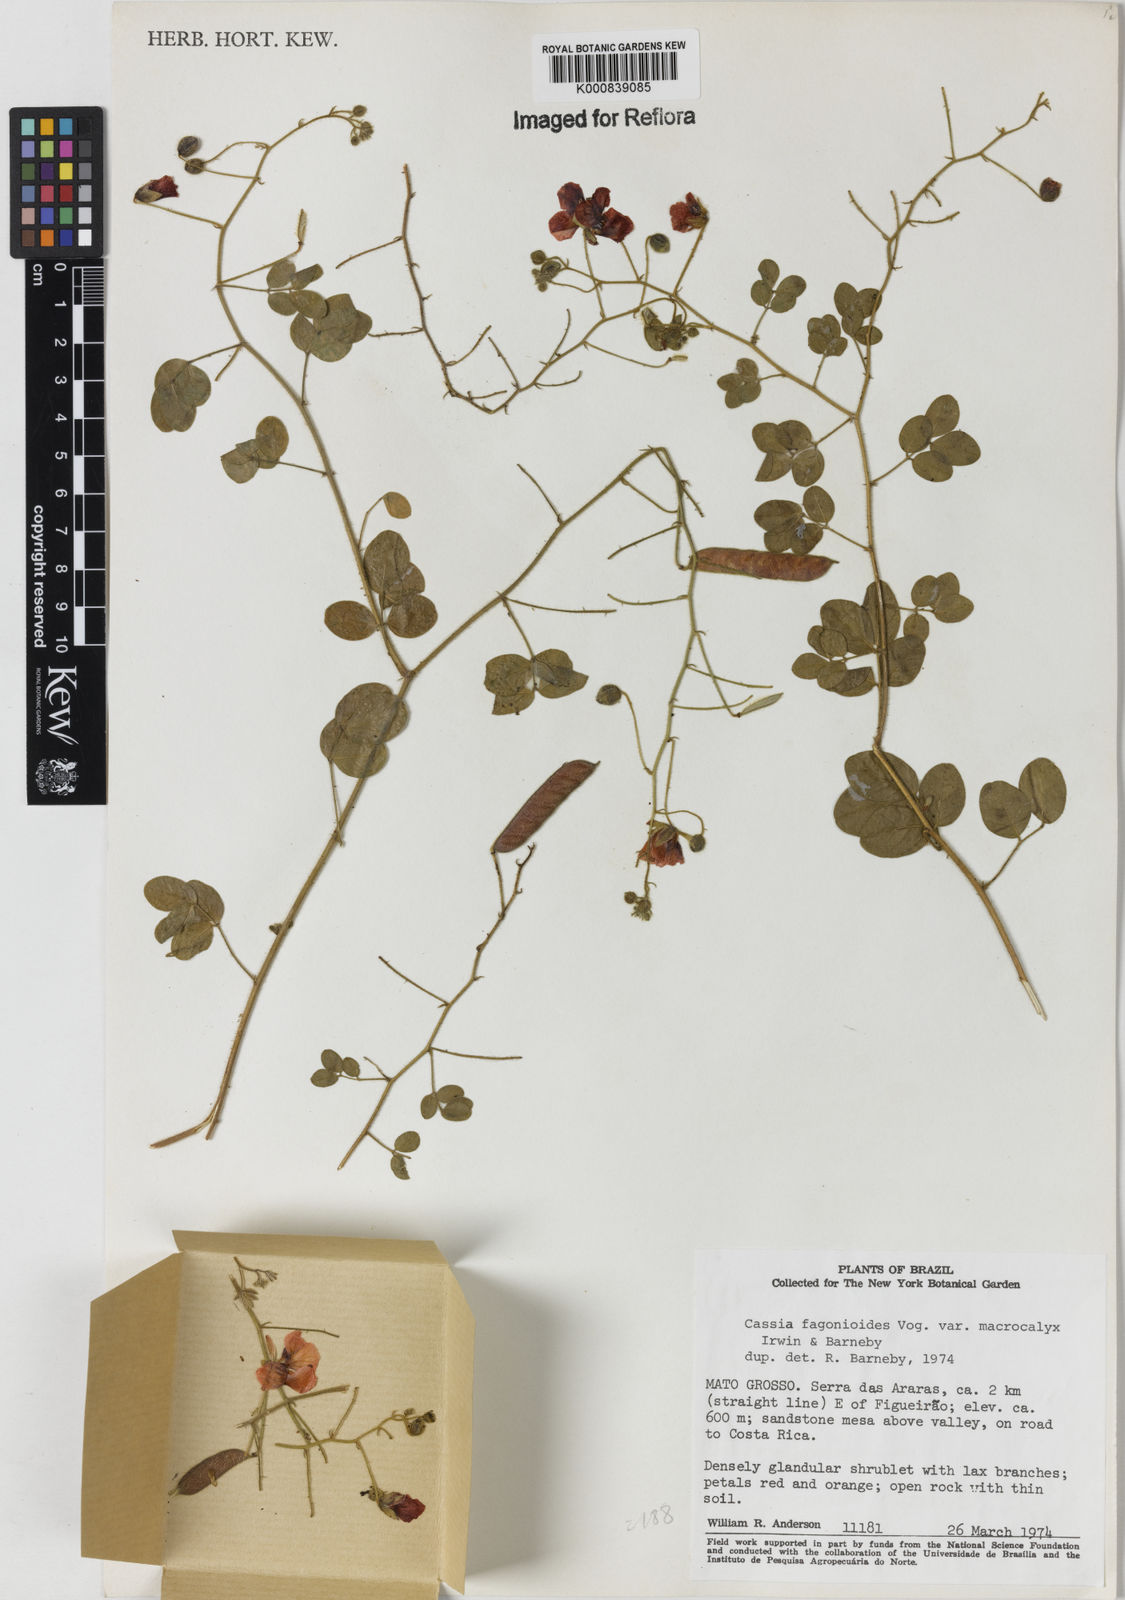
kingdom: Plantae
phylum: Tracheophyta
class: Magnoliopsida
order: Fabales
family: Fabaceae
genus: Chamaecrista
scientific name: Chamaecrista fagonioides
